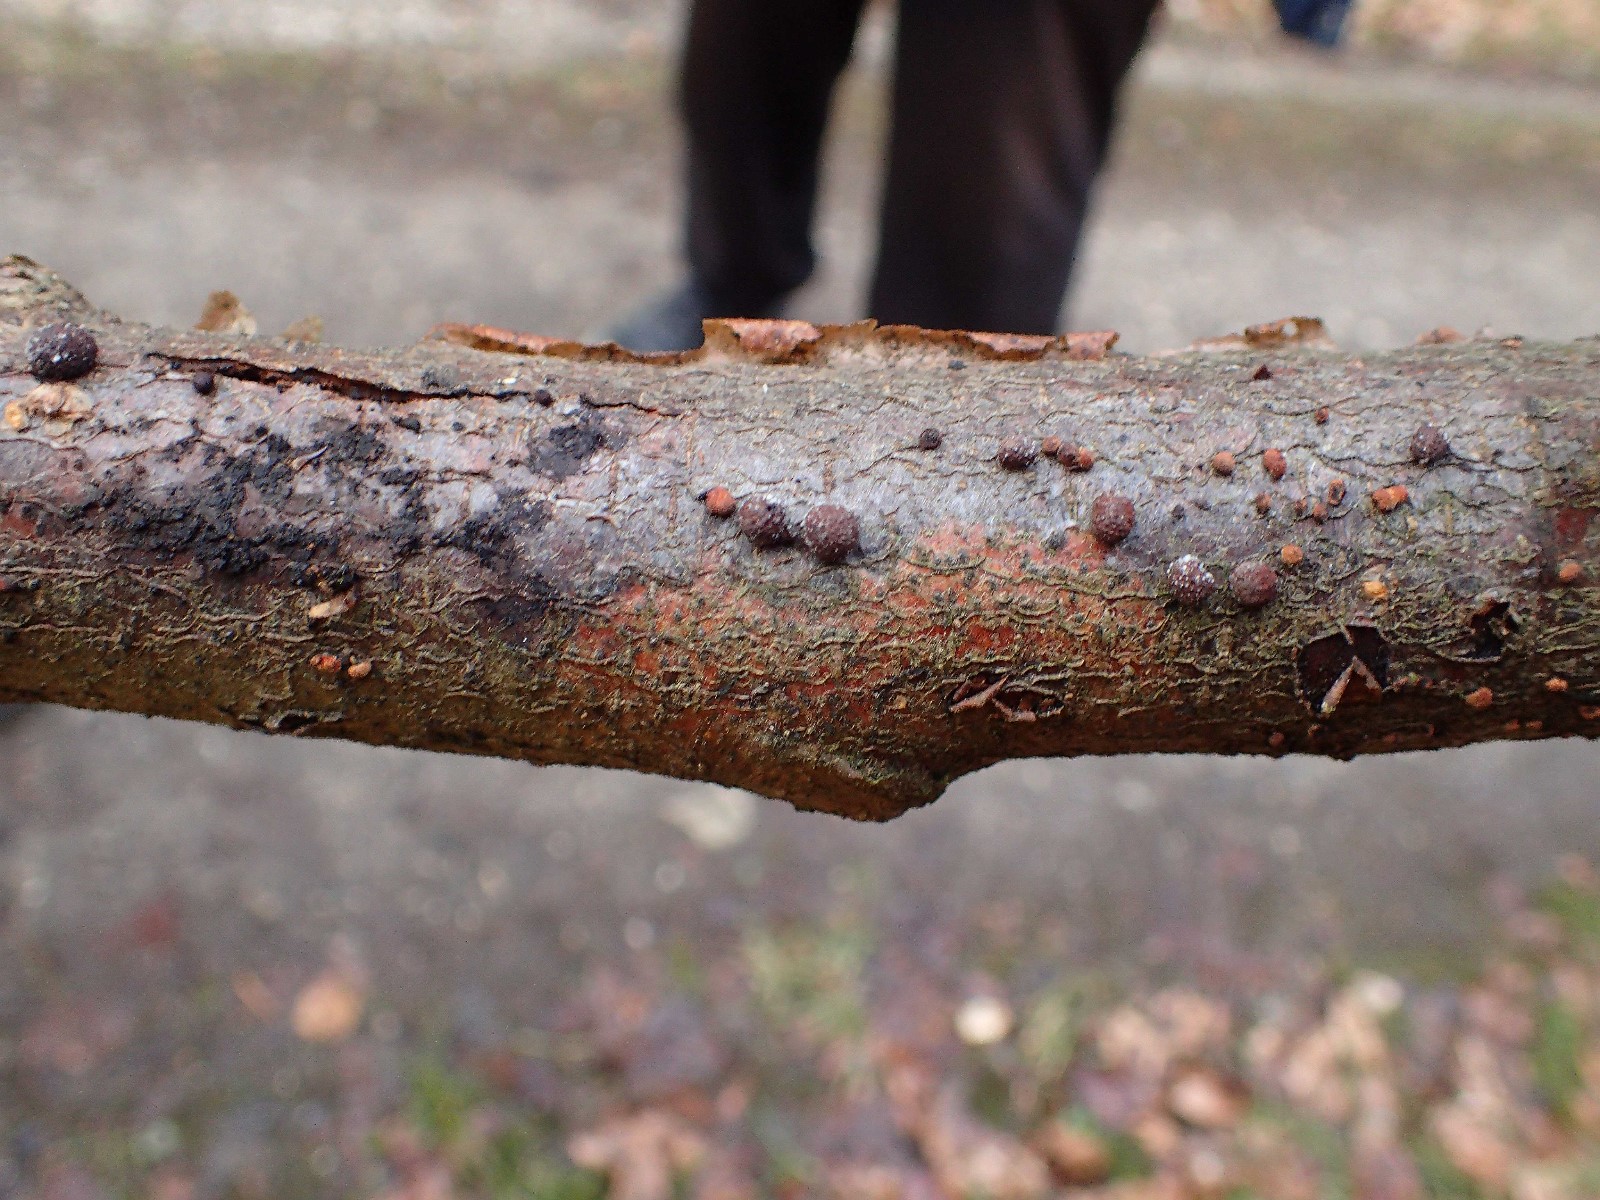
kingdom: Fungi
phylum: Ascomycota
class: Sordariomycetes
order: Xylariales
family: Hypoxylaceae
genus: Hypoxylon
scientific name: Hypoxylon
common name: kulbær
